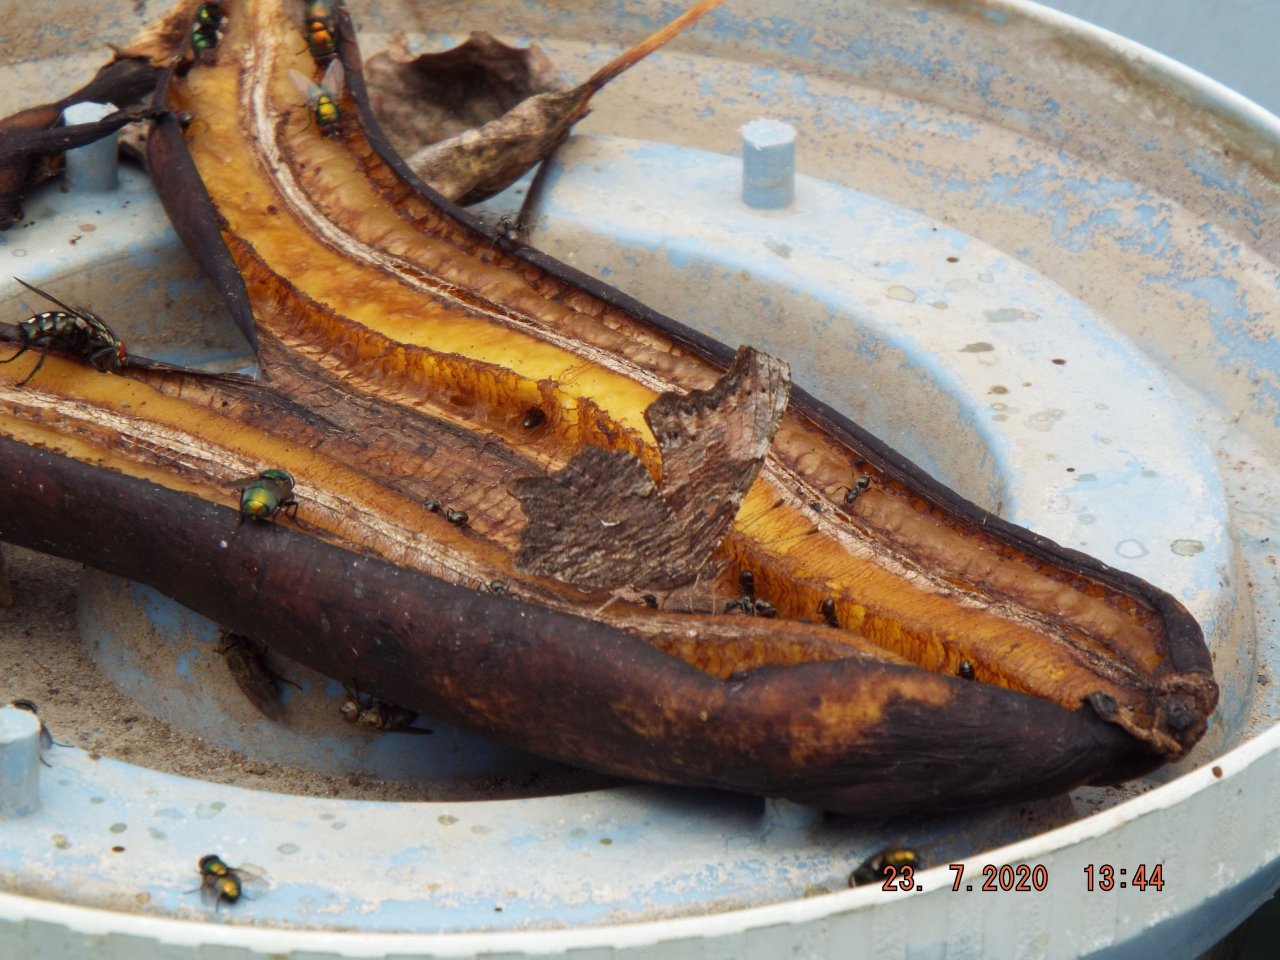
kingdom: Animalia
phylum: Arthropoda
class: Insecta
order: Lepidoptera
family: Nymphalidae
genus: Polygonia
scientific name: Polygonia progne
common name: Gray Comma
